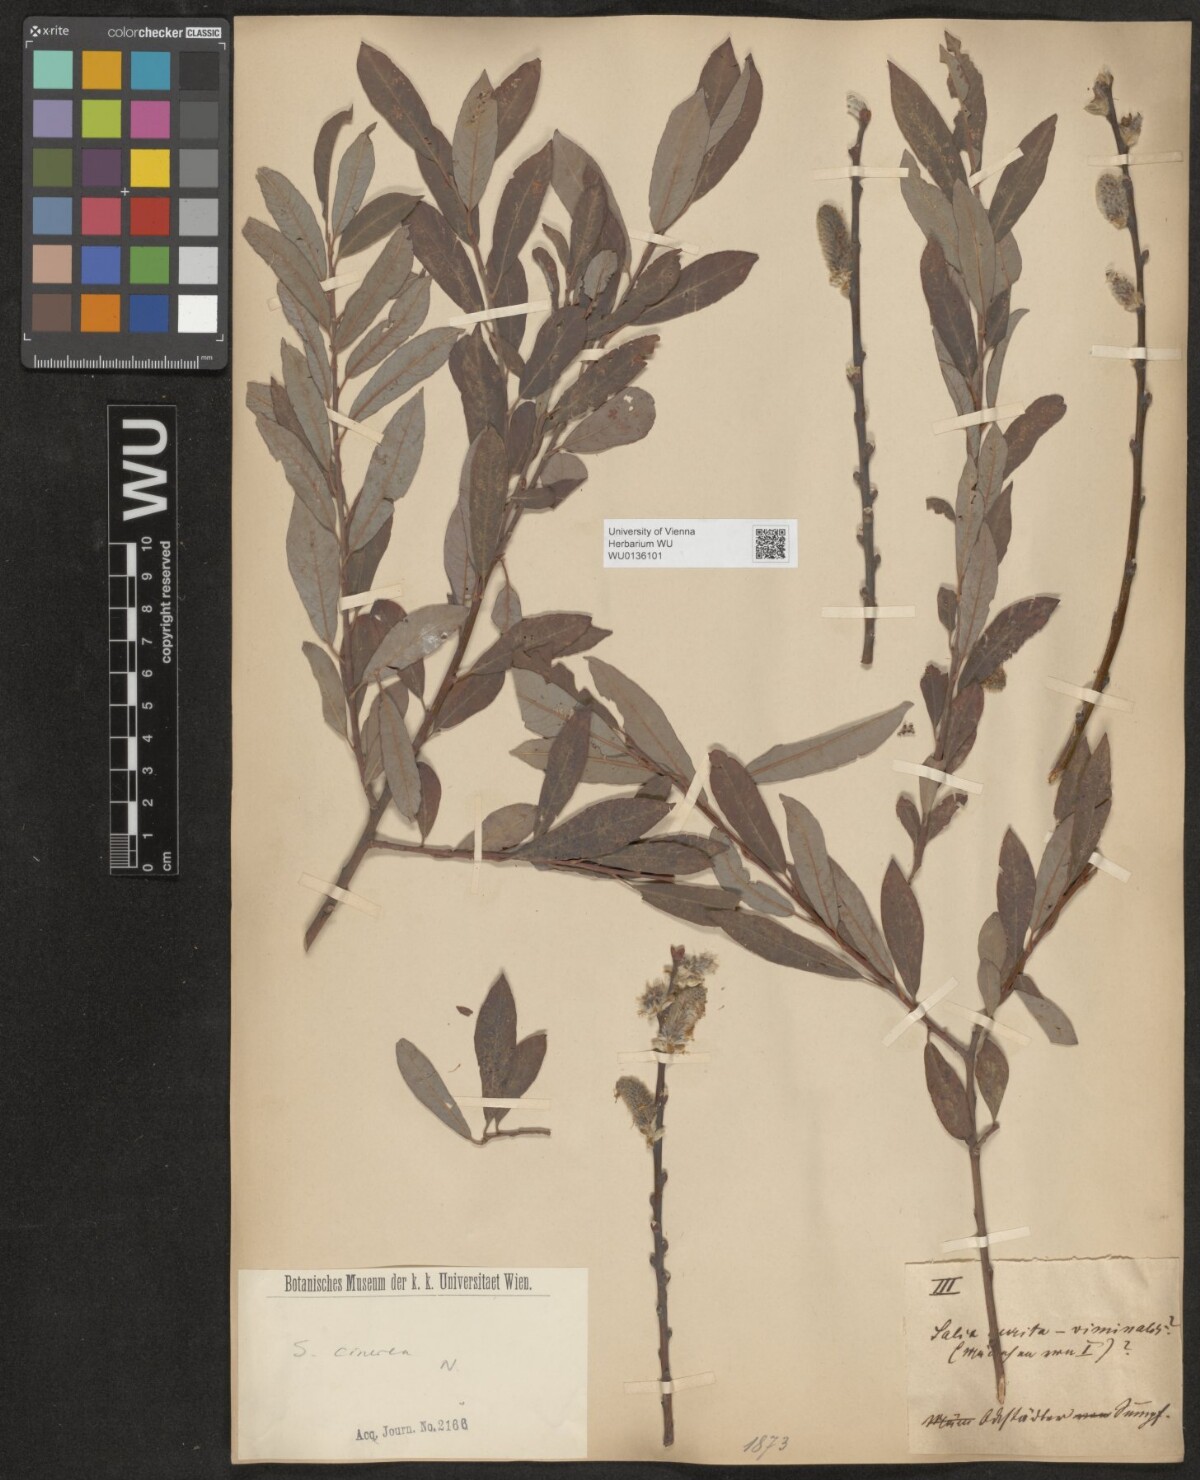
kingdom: Plantae
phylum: Tracheophyta
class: Magnoliopsida
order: Malpighiales
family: Salicaceae
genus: Salix
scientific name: Salix cinerea
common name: Common sallow
